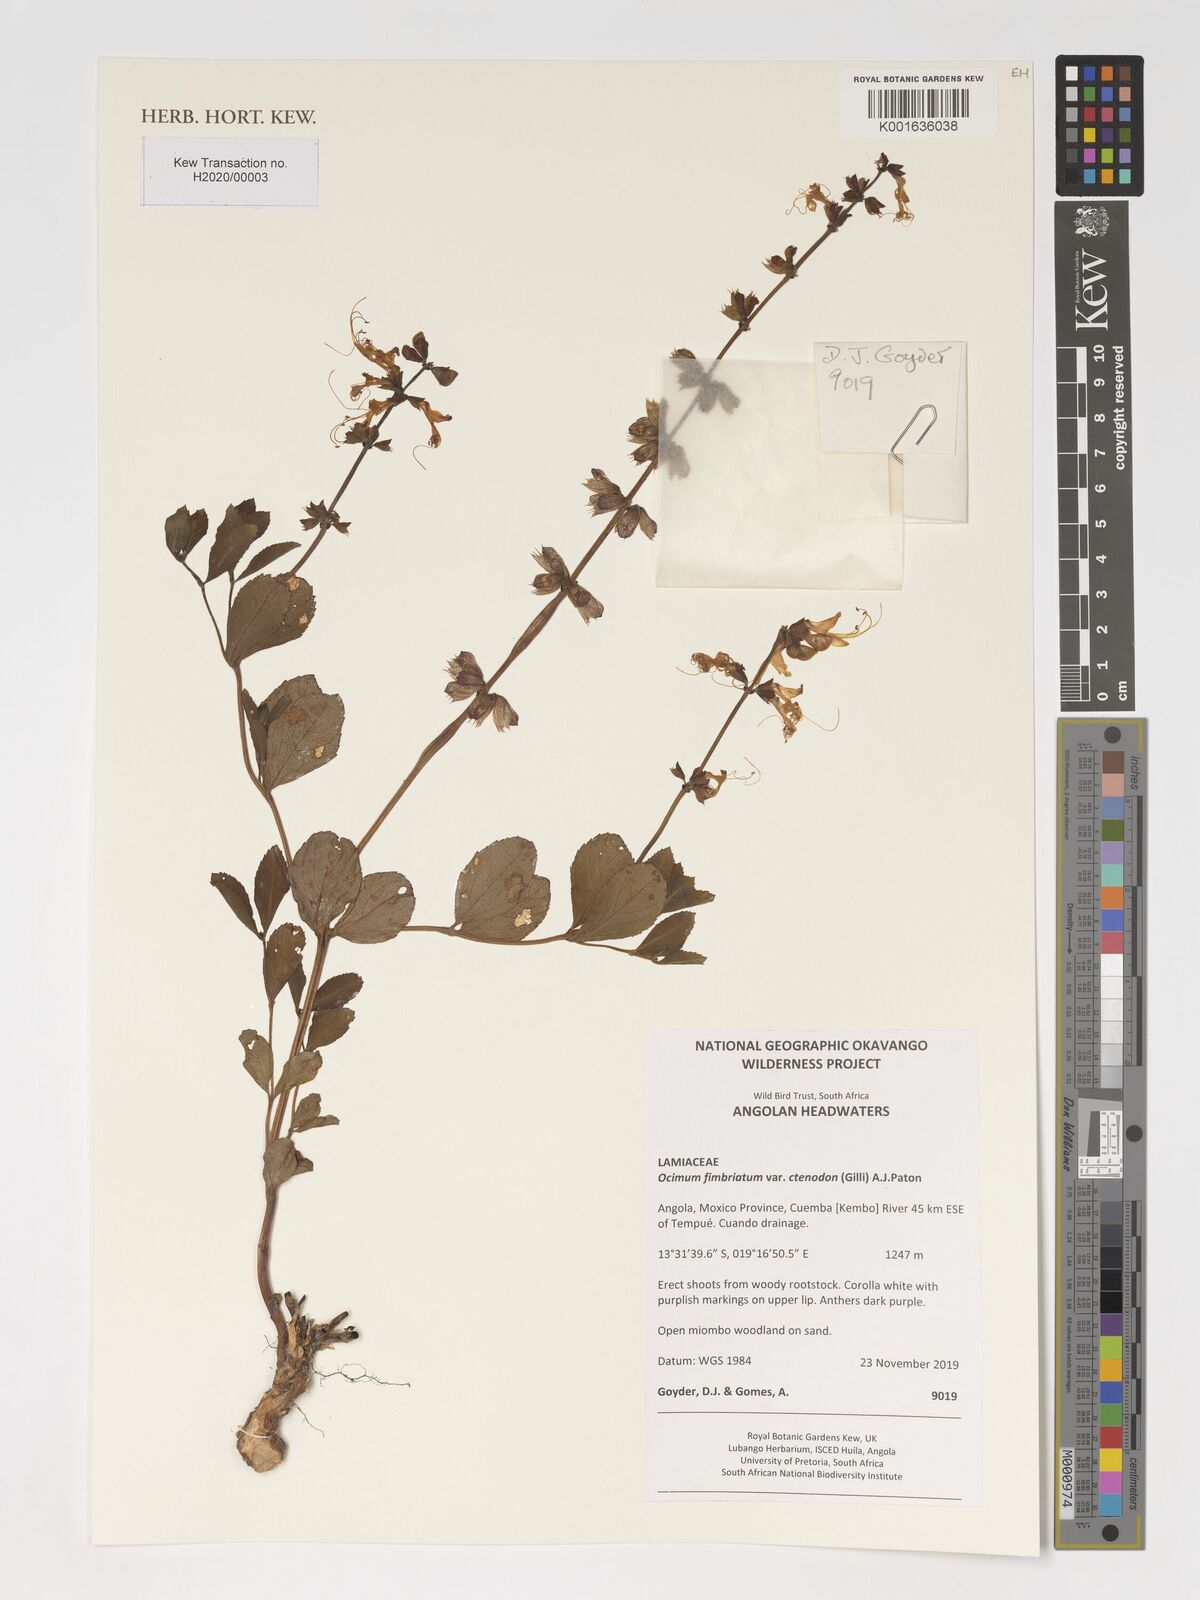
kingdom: Plantae
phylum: Tracheophyta
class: Magnoliopsida
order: Lamiales
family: Lamiaceae
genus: Ocimum
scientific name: Ocimum fimbriatum
